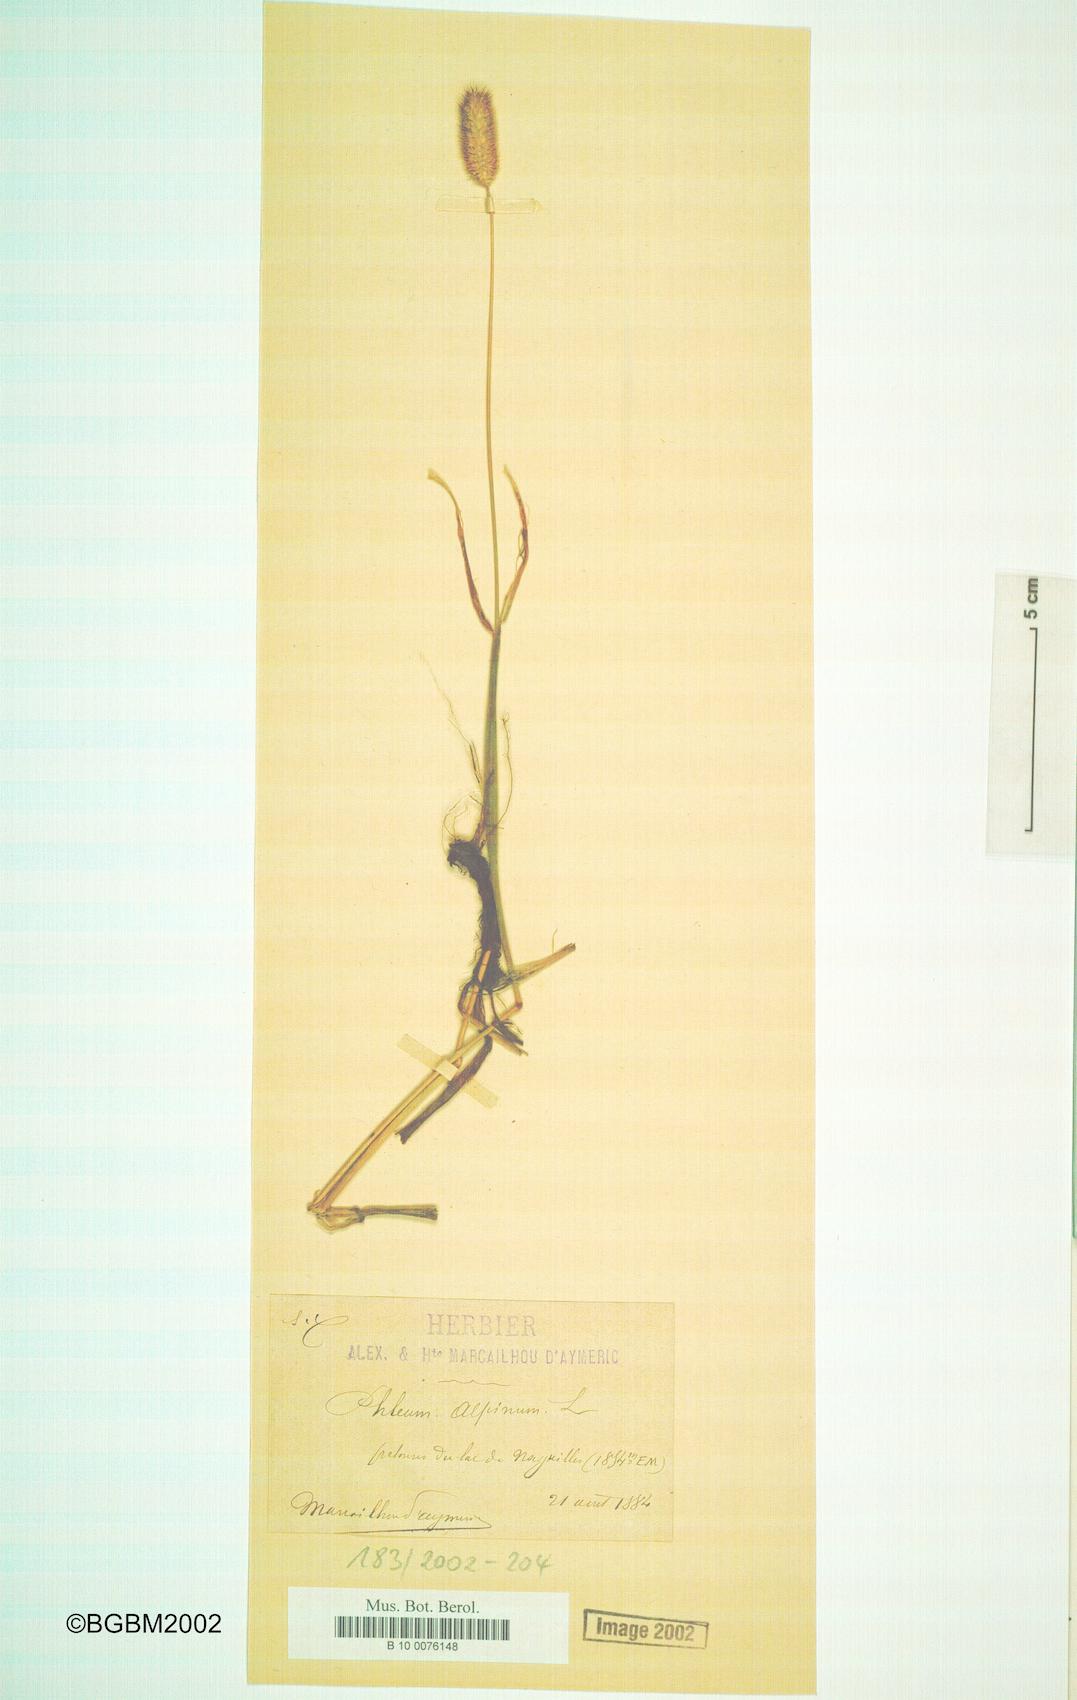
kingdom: Plantae
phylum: Tracheophyta
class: Liliopsida
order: Poales
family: Poaceae
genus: Phleum
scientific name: Phleum alpinum
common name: Alpine cat's-tail
